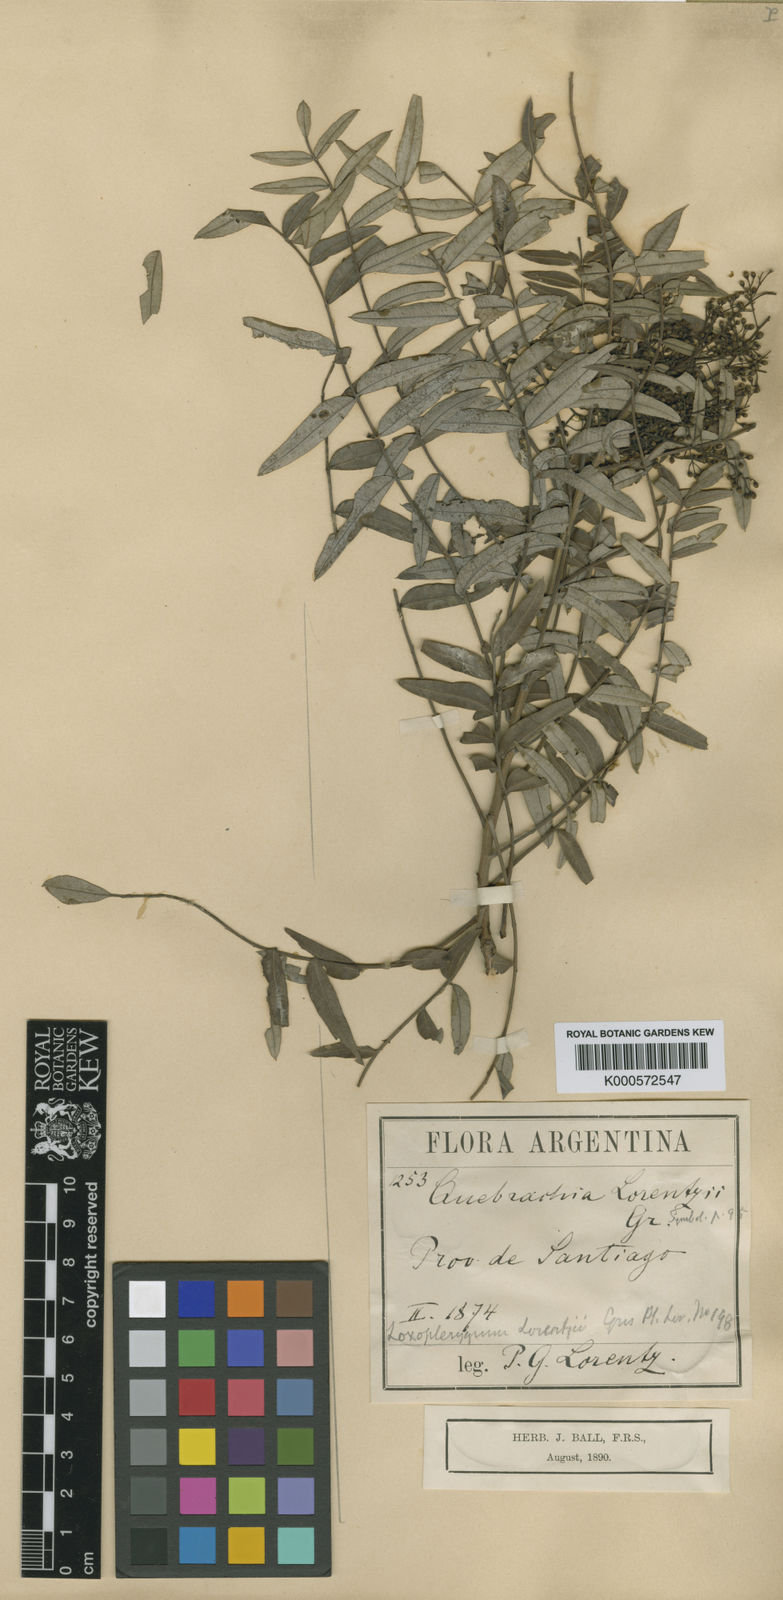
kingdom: Plantae
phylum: Tracheophyta
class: Magnoliopsida
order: Sapindales
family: Anacardiaceae
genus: Schinopsis
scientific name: Schinopsis lorentzii
